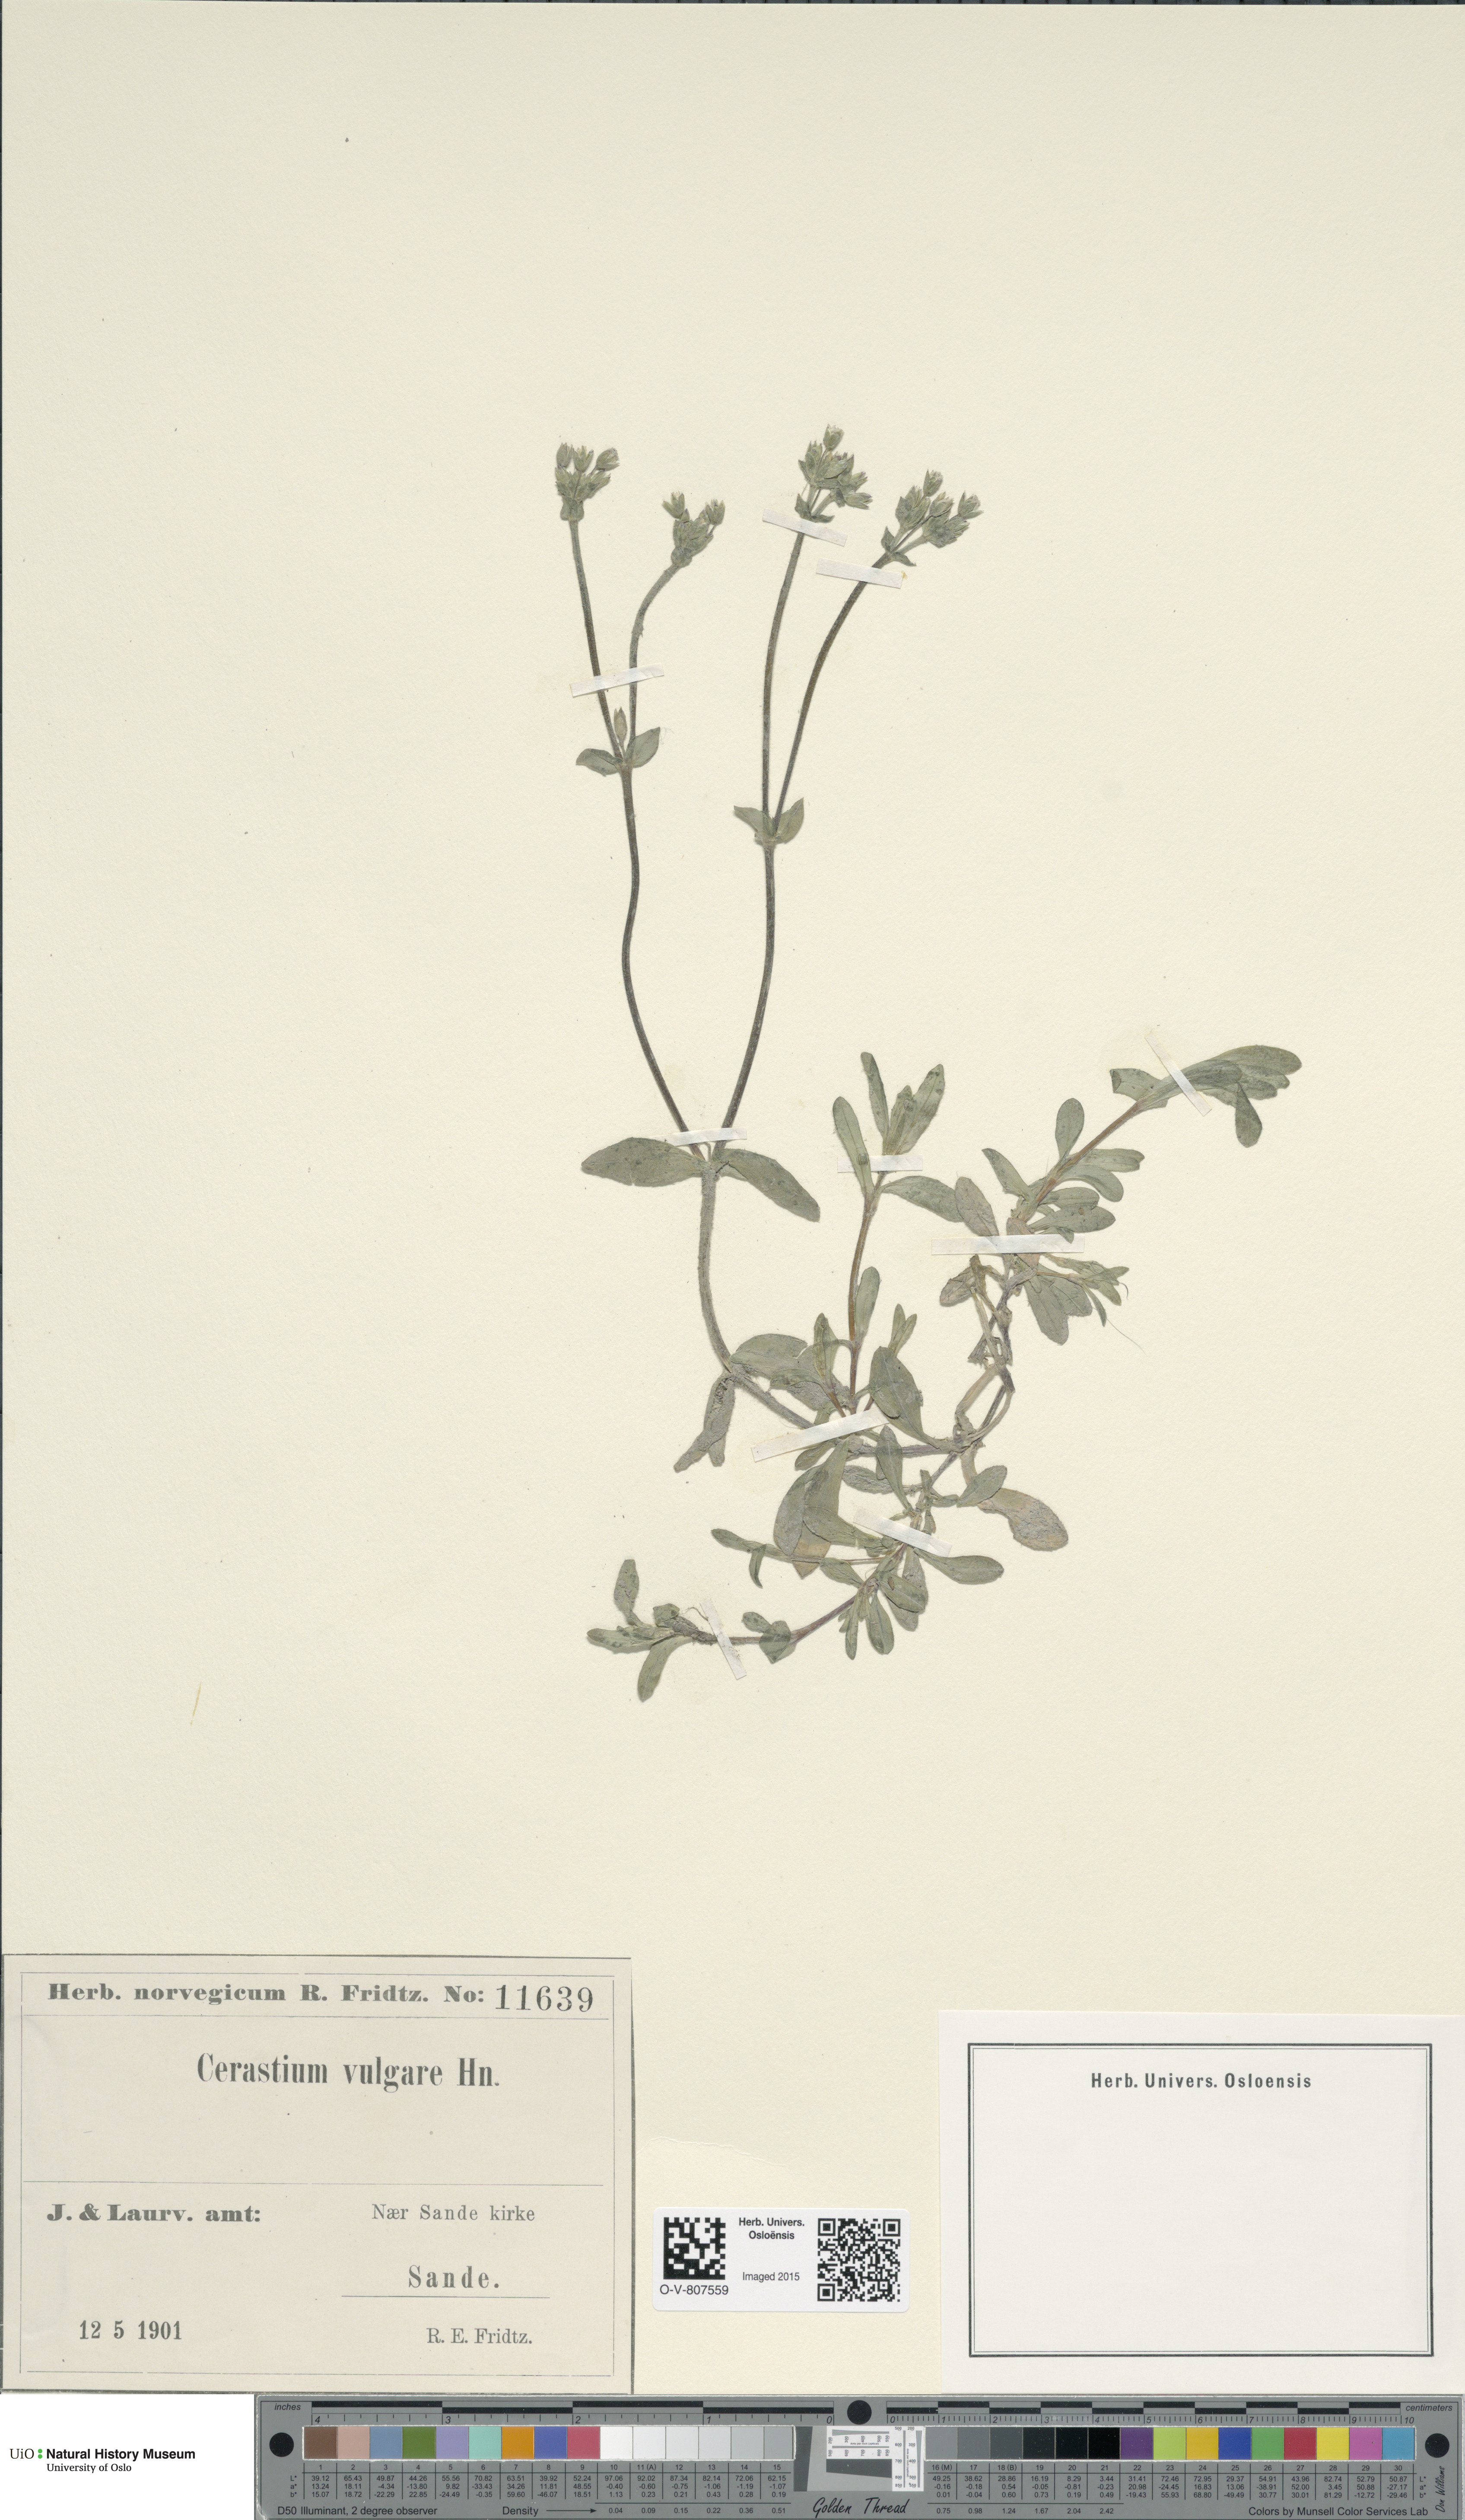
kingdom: Plantae
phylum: Tracheophyta
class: Magnoliopsida
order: Caryophyllales
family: Caryophyllaceae
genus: Cerastium
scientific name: Cerastium holosteoides
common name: Big chickweed
